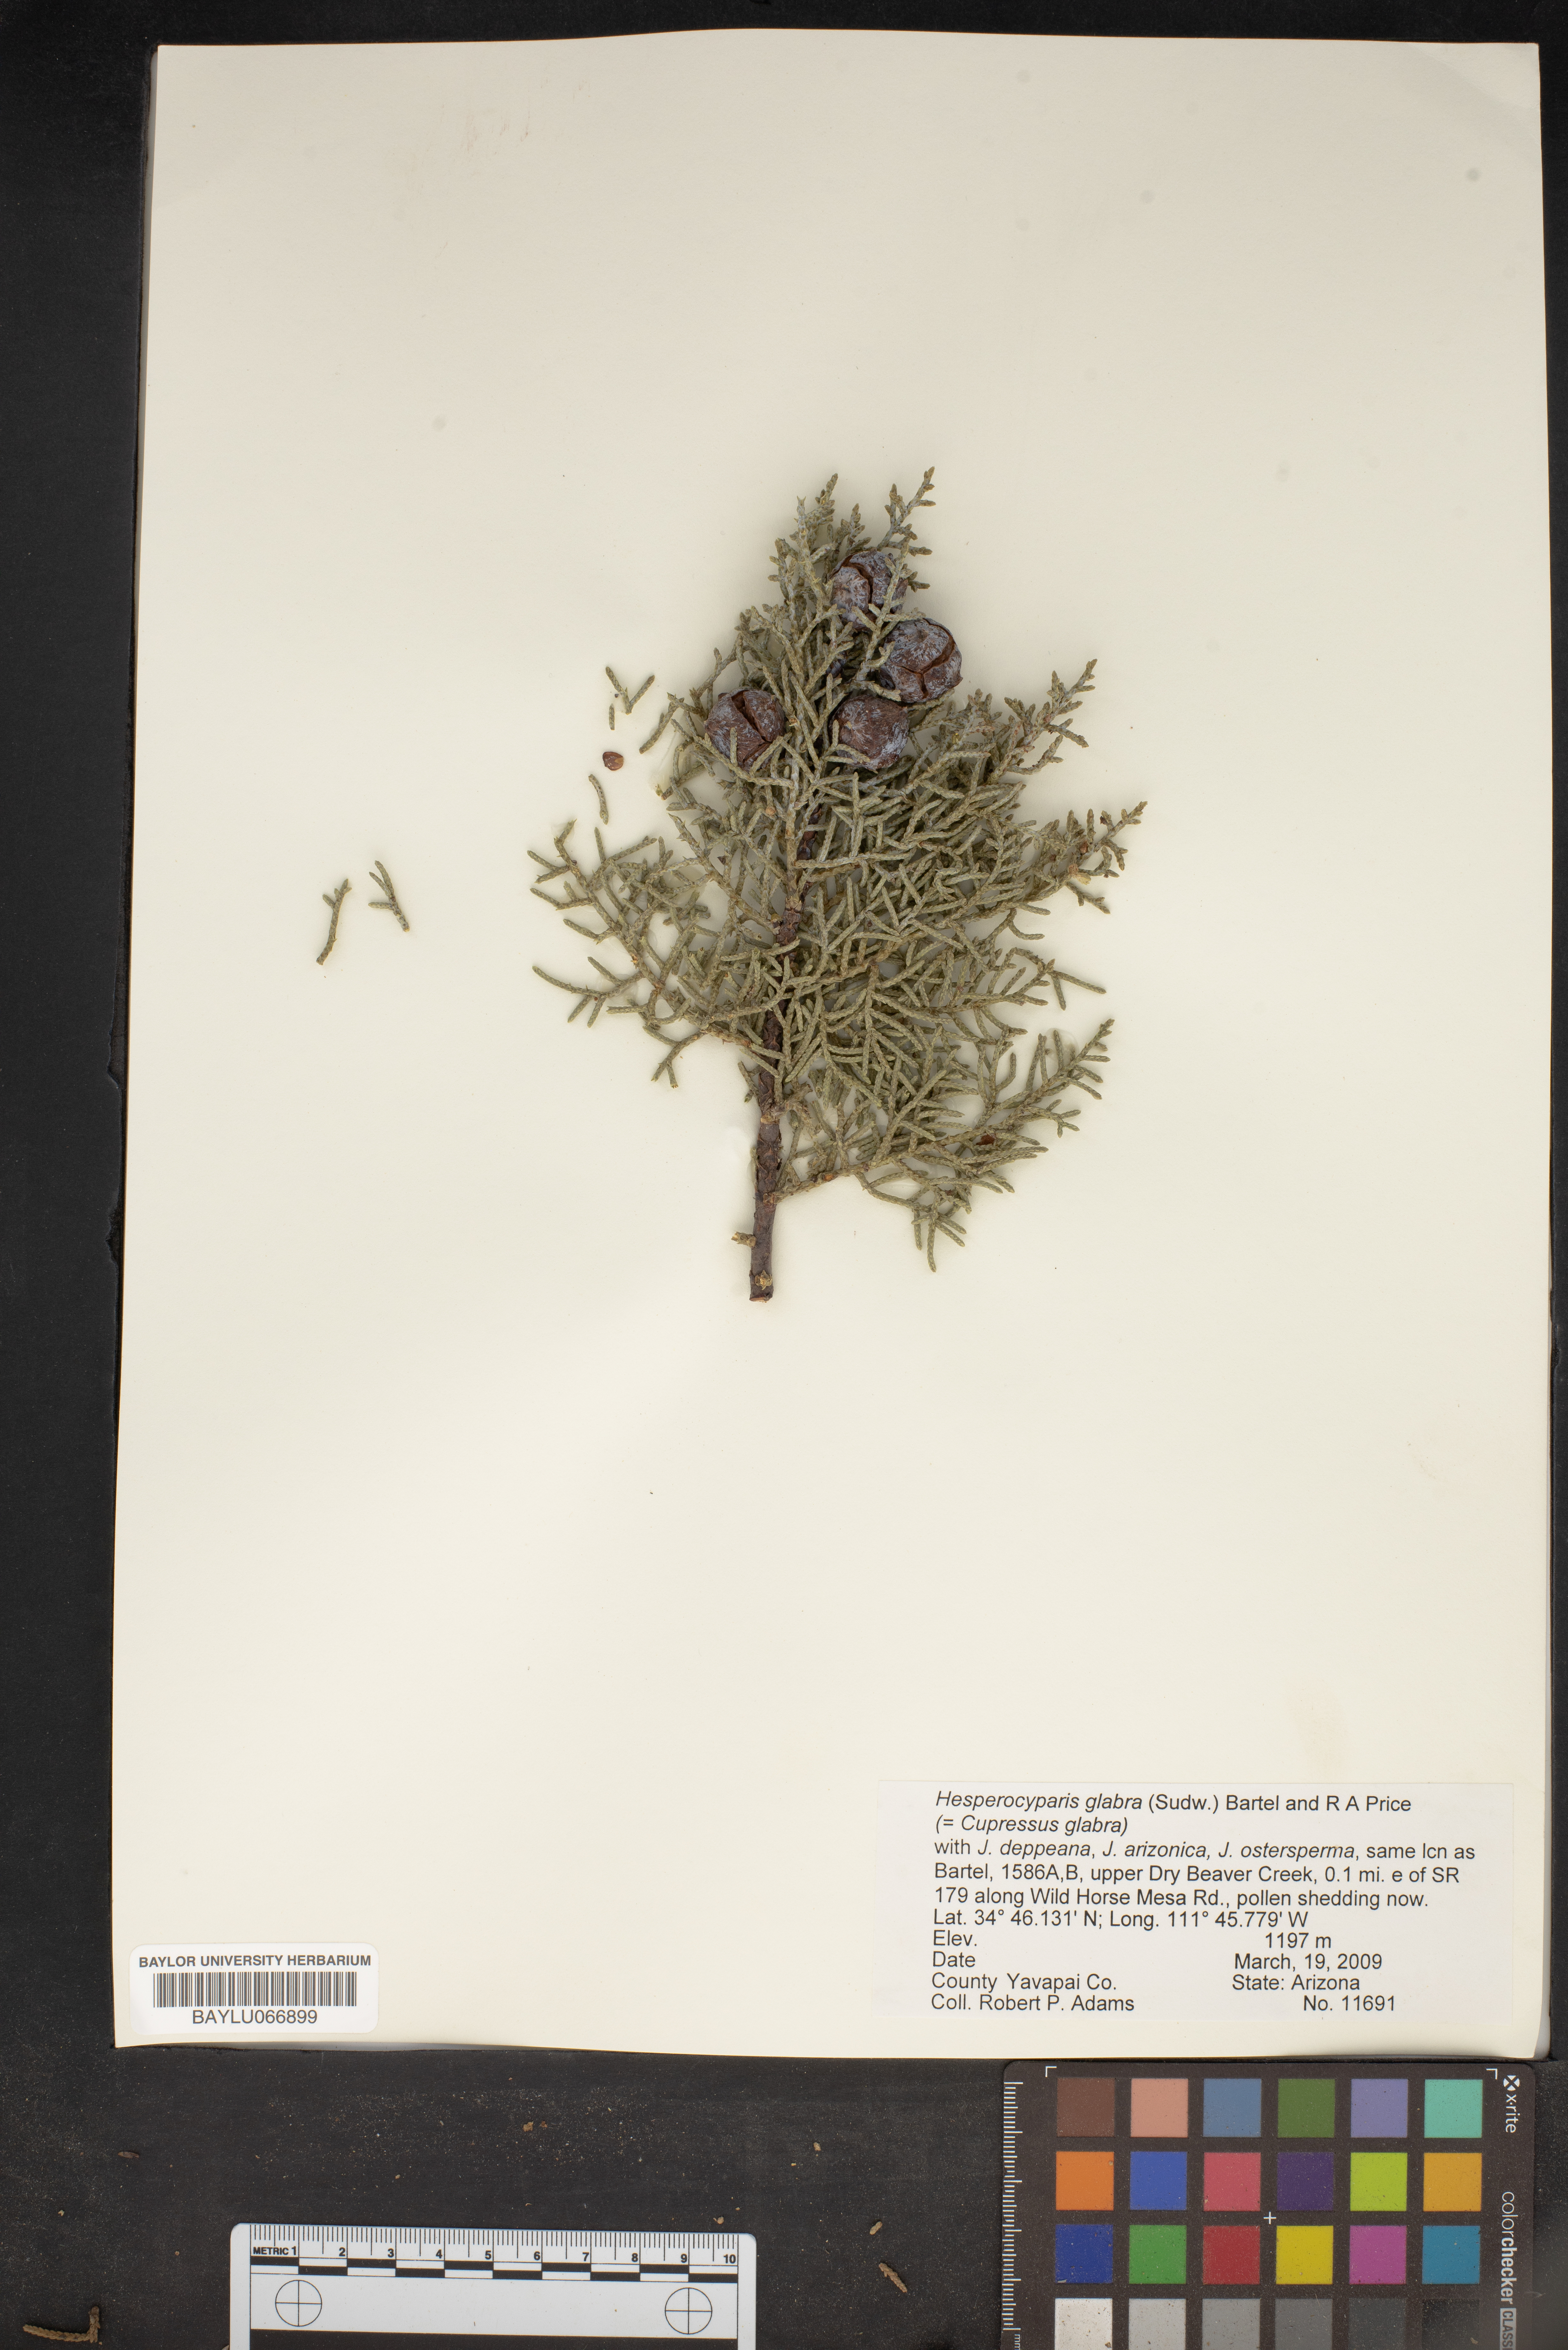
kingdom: Plantae
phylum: Tracheophyta
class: Pinopsida
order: Pinales
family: Cupressaceae
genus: Cupressus
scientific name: Cupressus arizonica
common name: Arizona cypress
